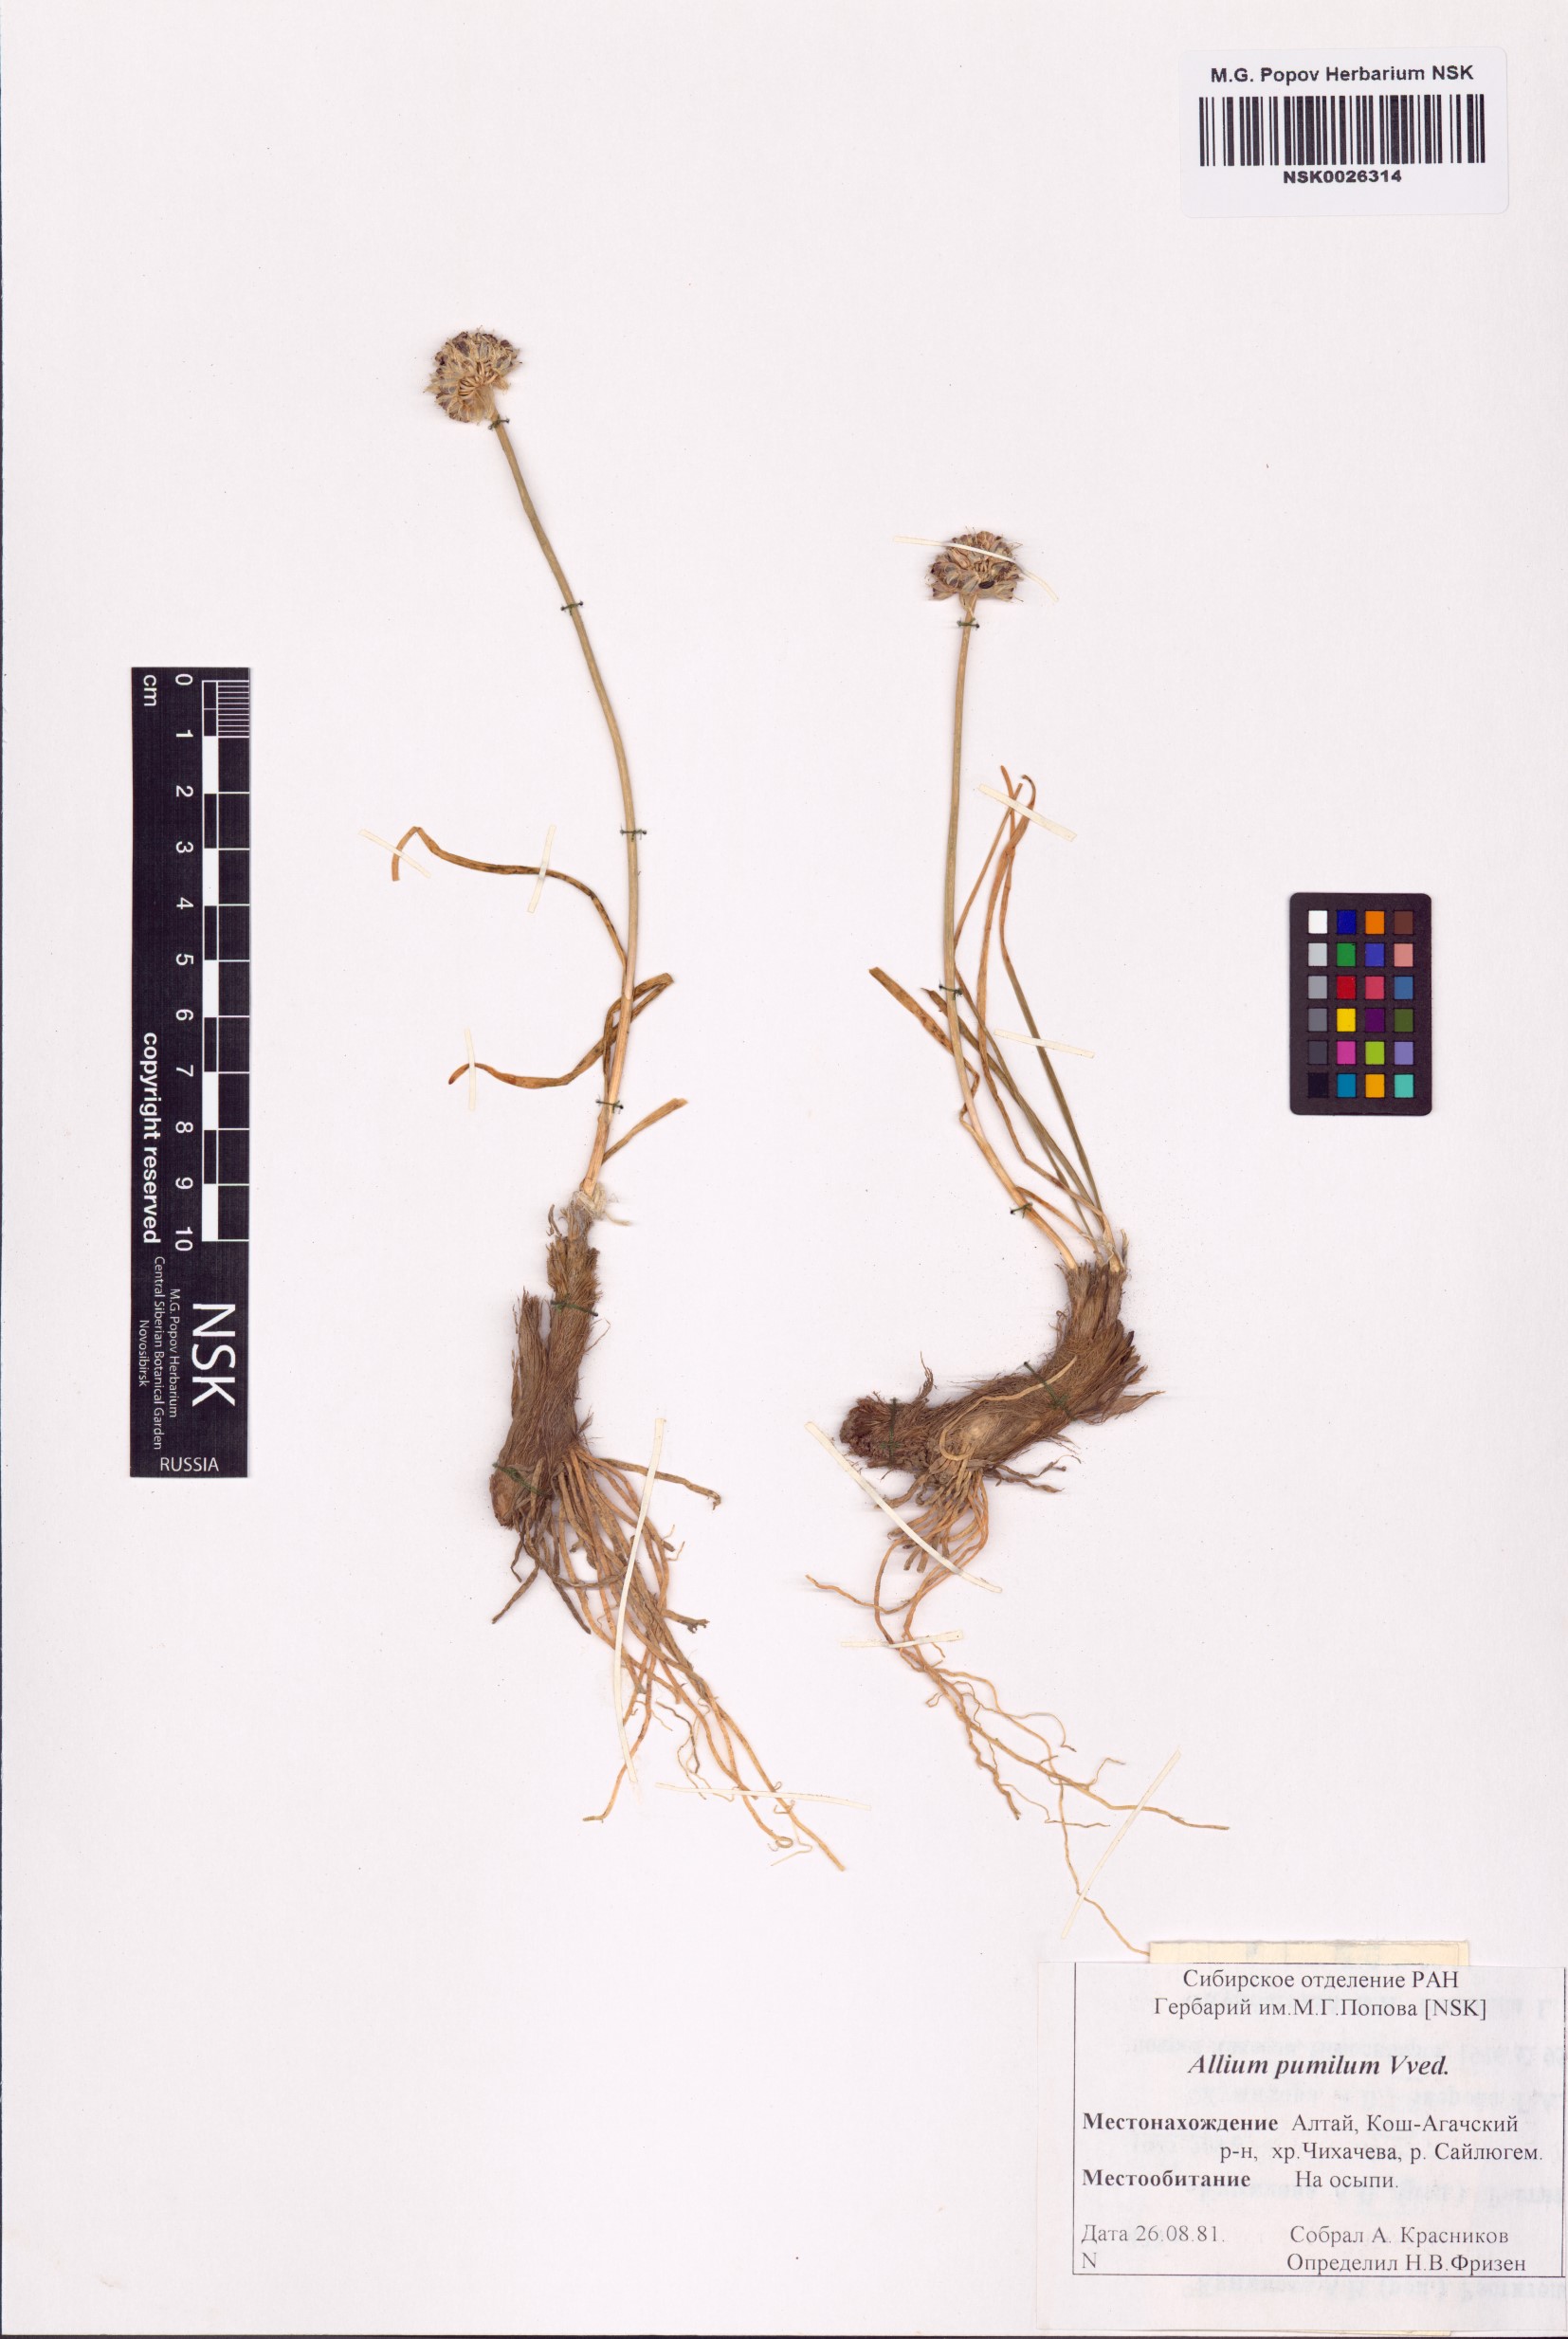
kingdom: Plantae
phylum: Tracheophyta
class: Liliopsida
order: Asparagales
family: Amaryllidaceae
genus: Allium
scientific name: Allium pumilum
